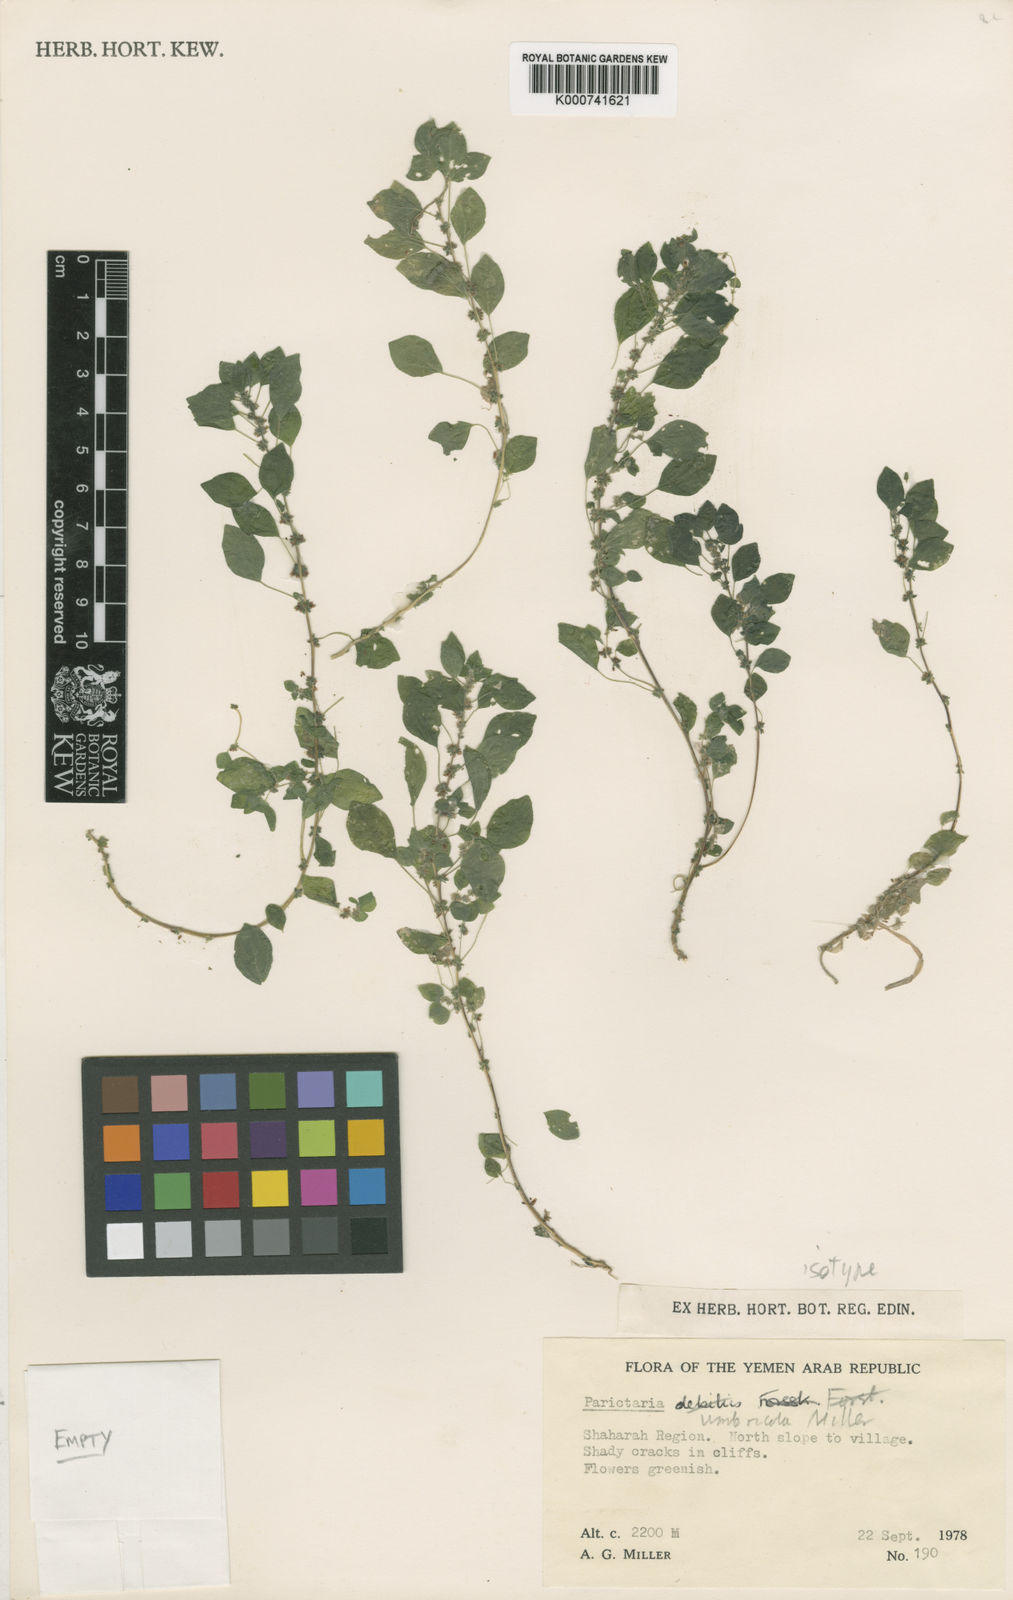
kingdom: Plantae
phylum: Tracheophyta
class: Magnoliopsida
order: Rosales
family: Urticaceae
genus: Parietaria
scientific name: Parietaria umbricola
